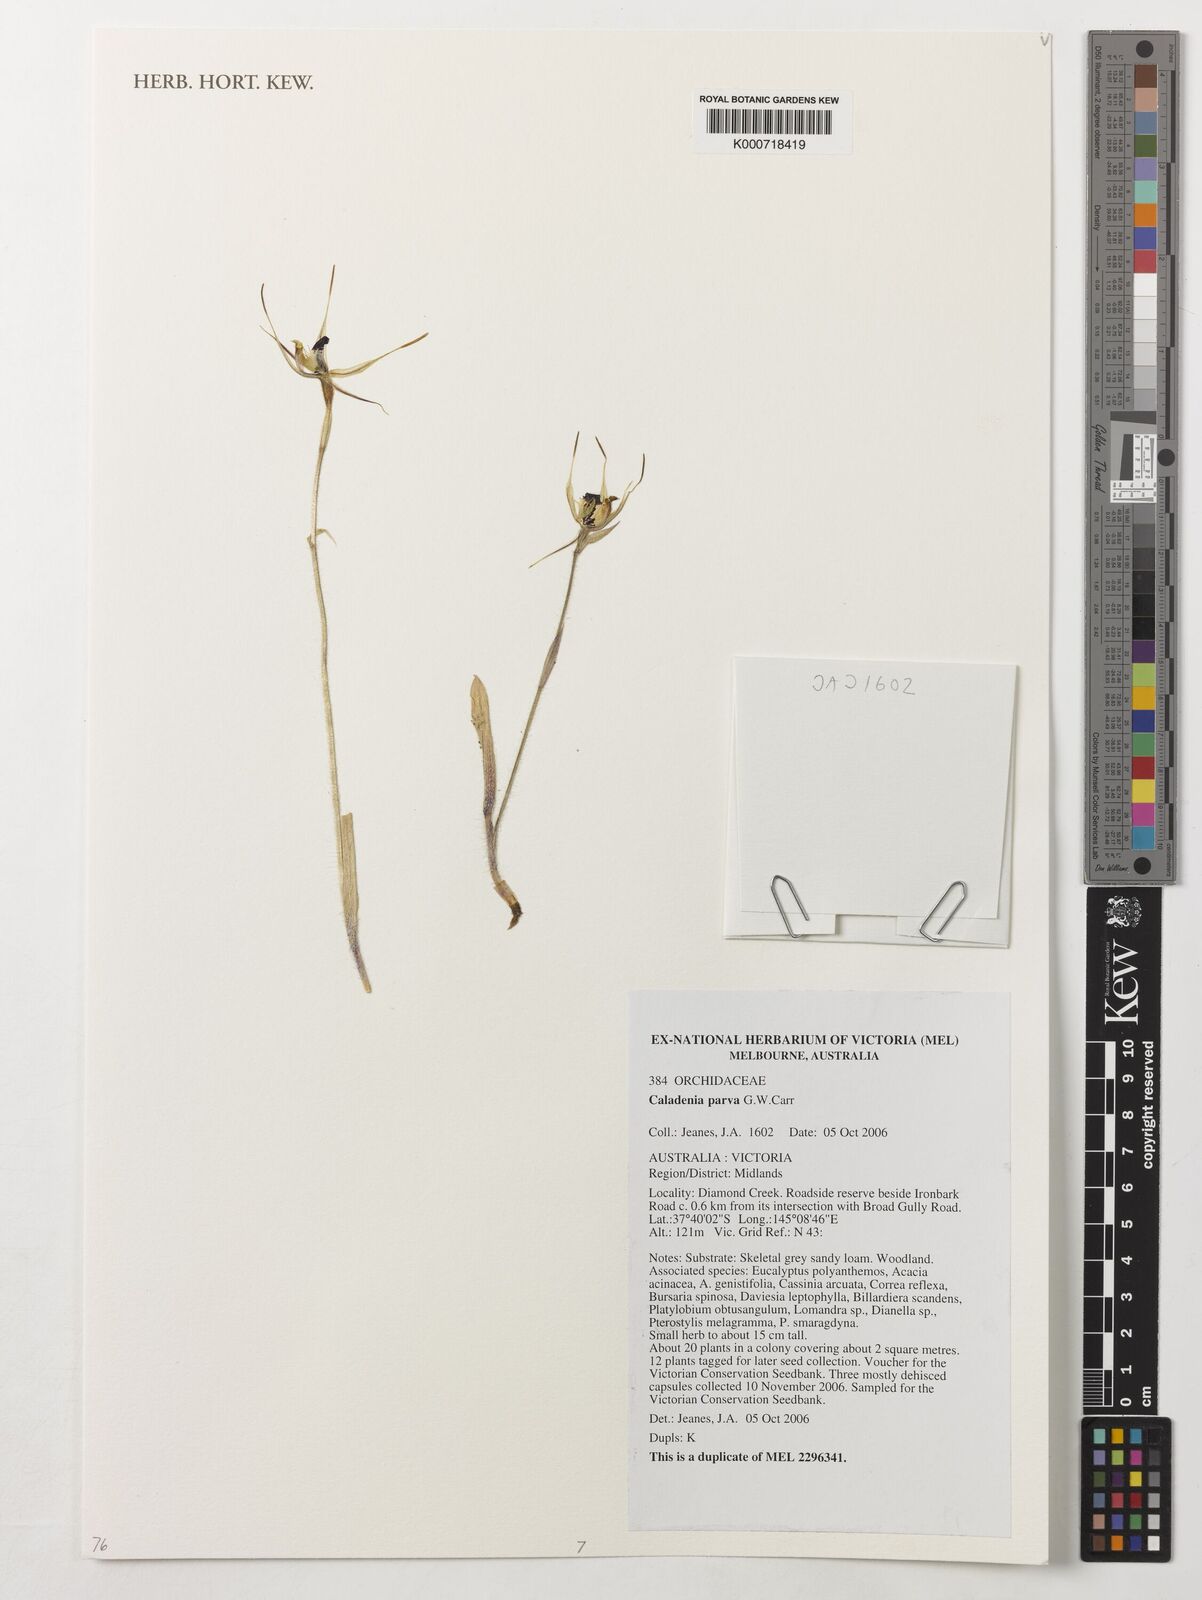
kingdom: Plantae
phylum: Tracheophyta
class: Liliopsida
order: Asparagales
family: Orchidaceae
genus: Caladenia
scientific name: Caladenia parva
